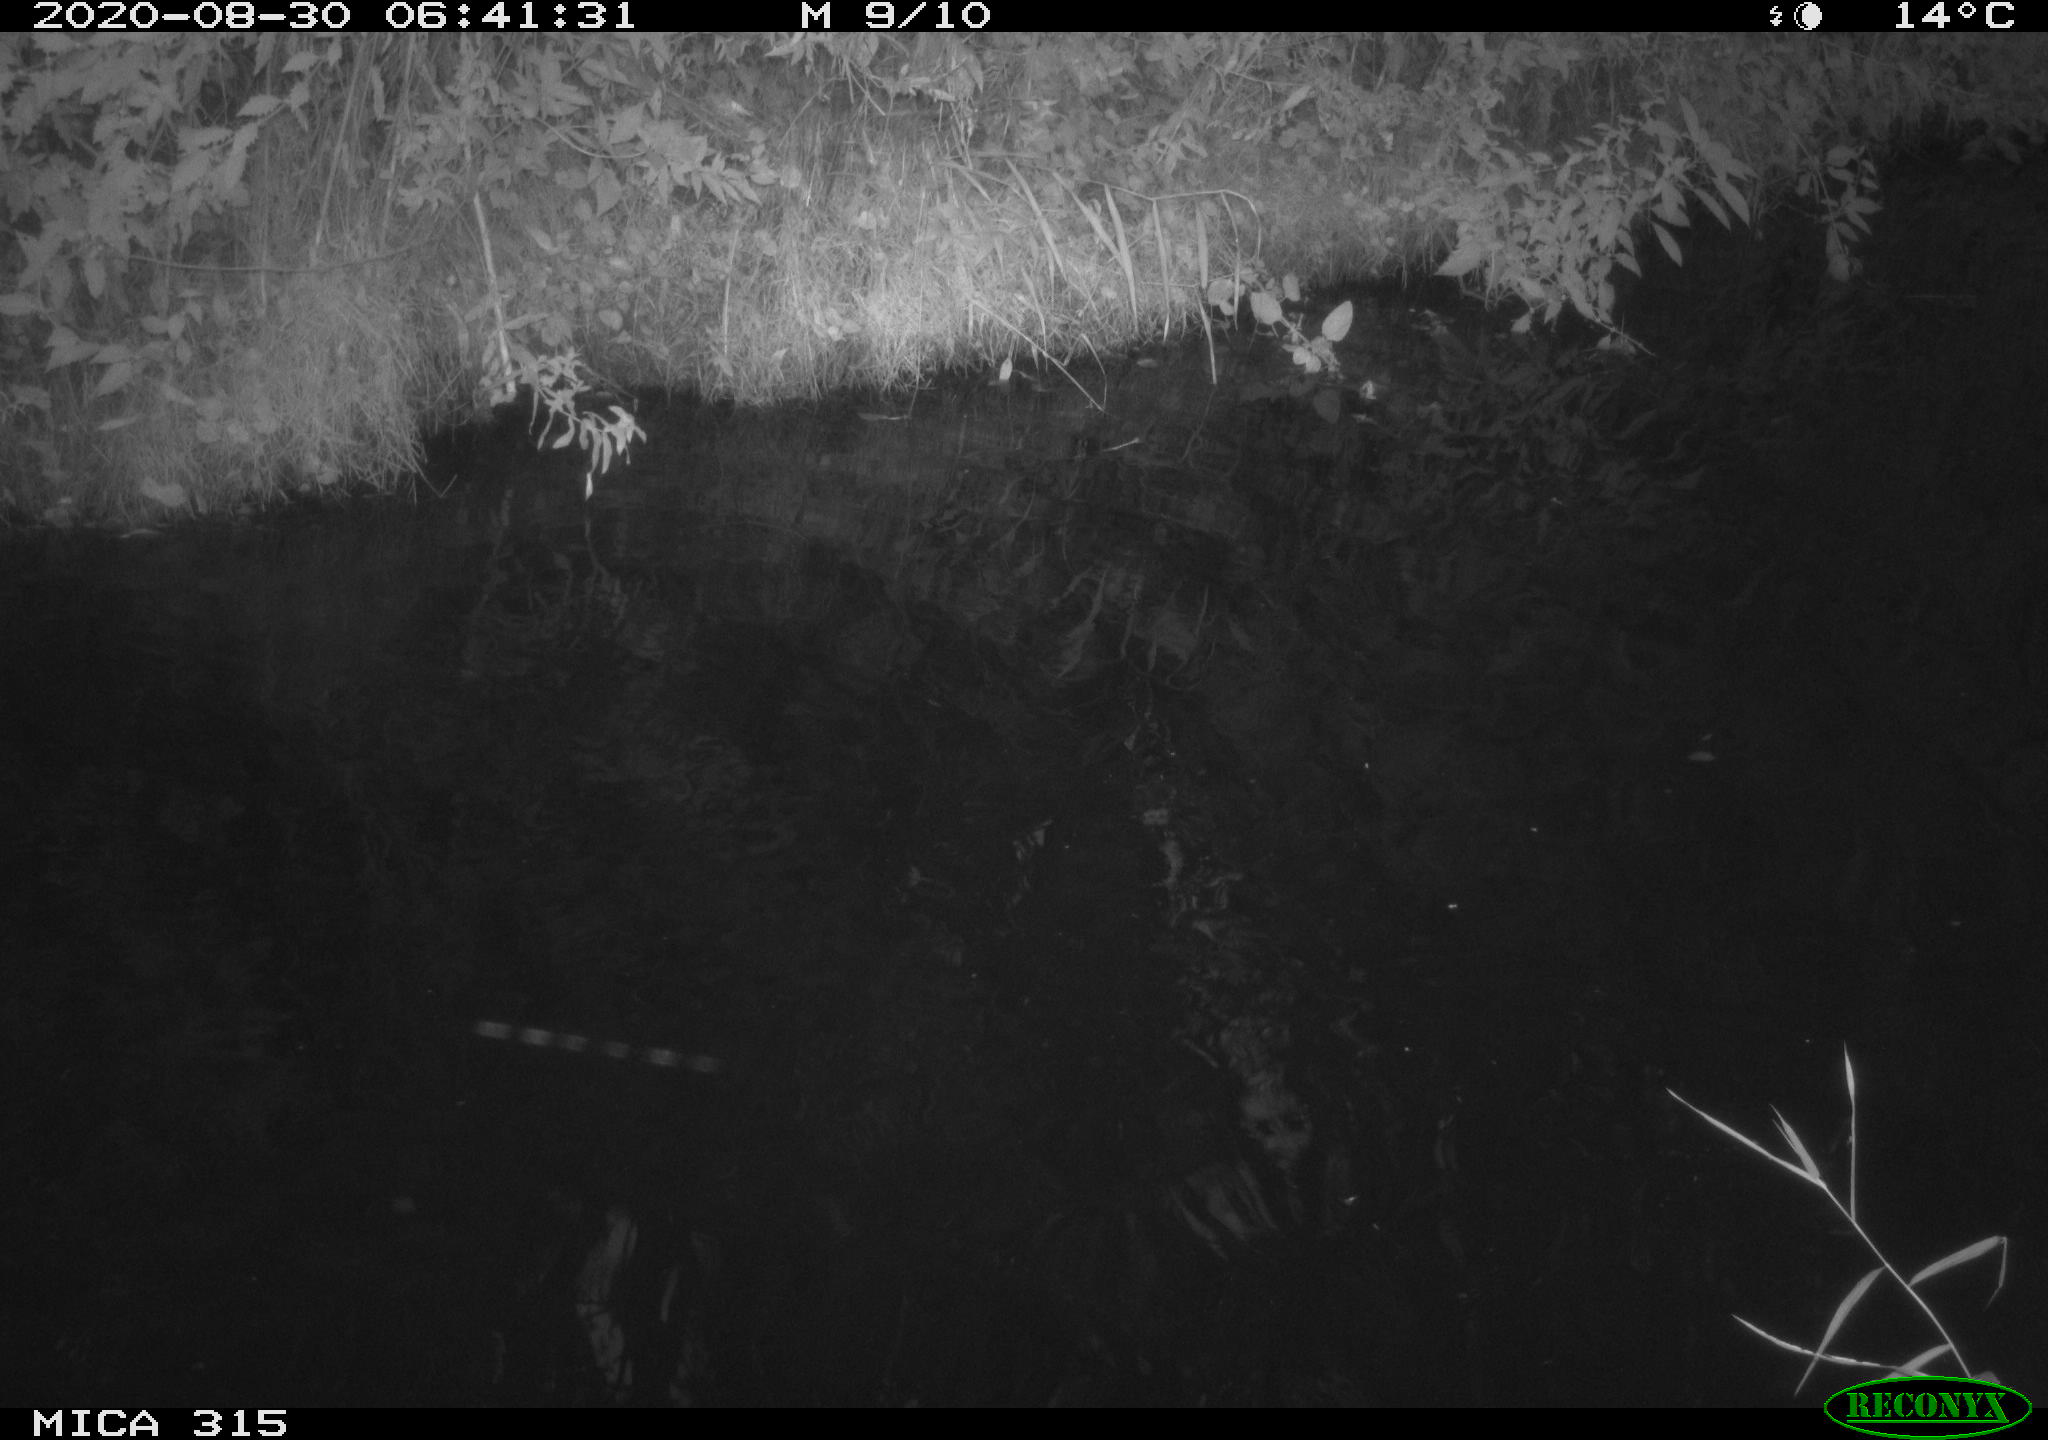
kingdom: Animalia
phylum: Chordata
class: Aves
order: Anseriformes
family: Anatidae
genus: Anas
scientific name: Anas platyrhynchos
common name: Mallard
